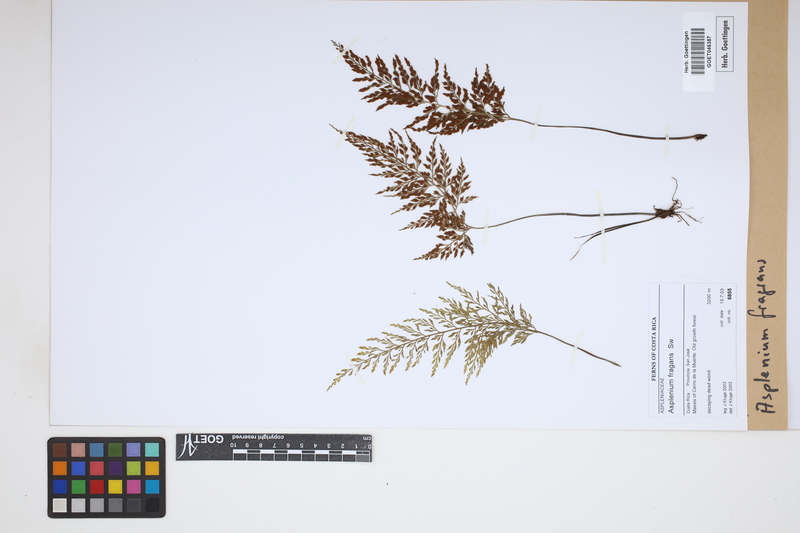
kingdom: Plantae
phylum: Tracheophyta
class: Polypodiopsida
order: Polypodiales
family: Aspleniaceae
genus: Asplenium
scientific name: Asplenium fragrans
